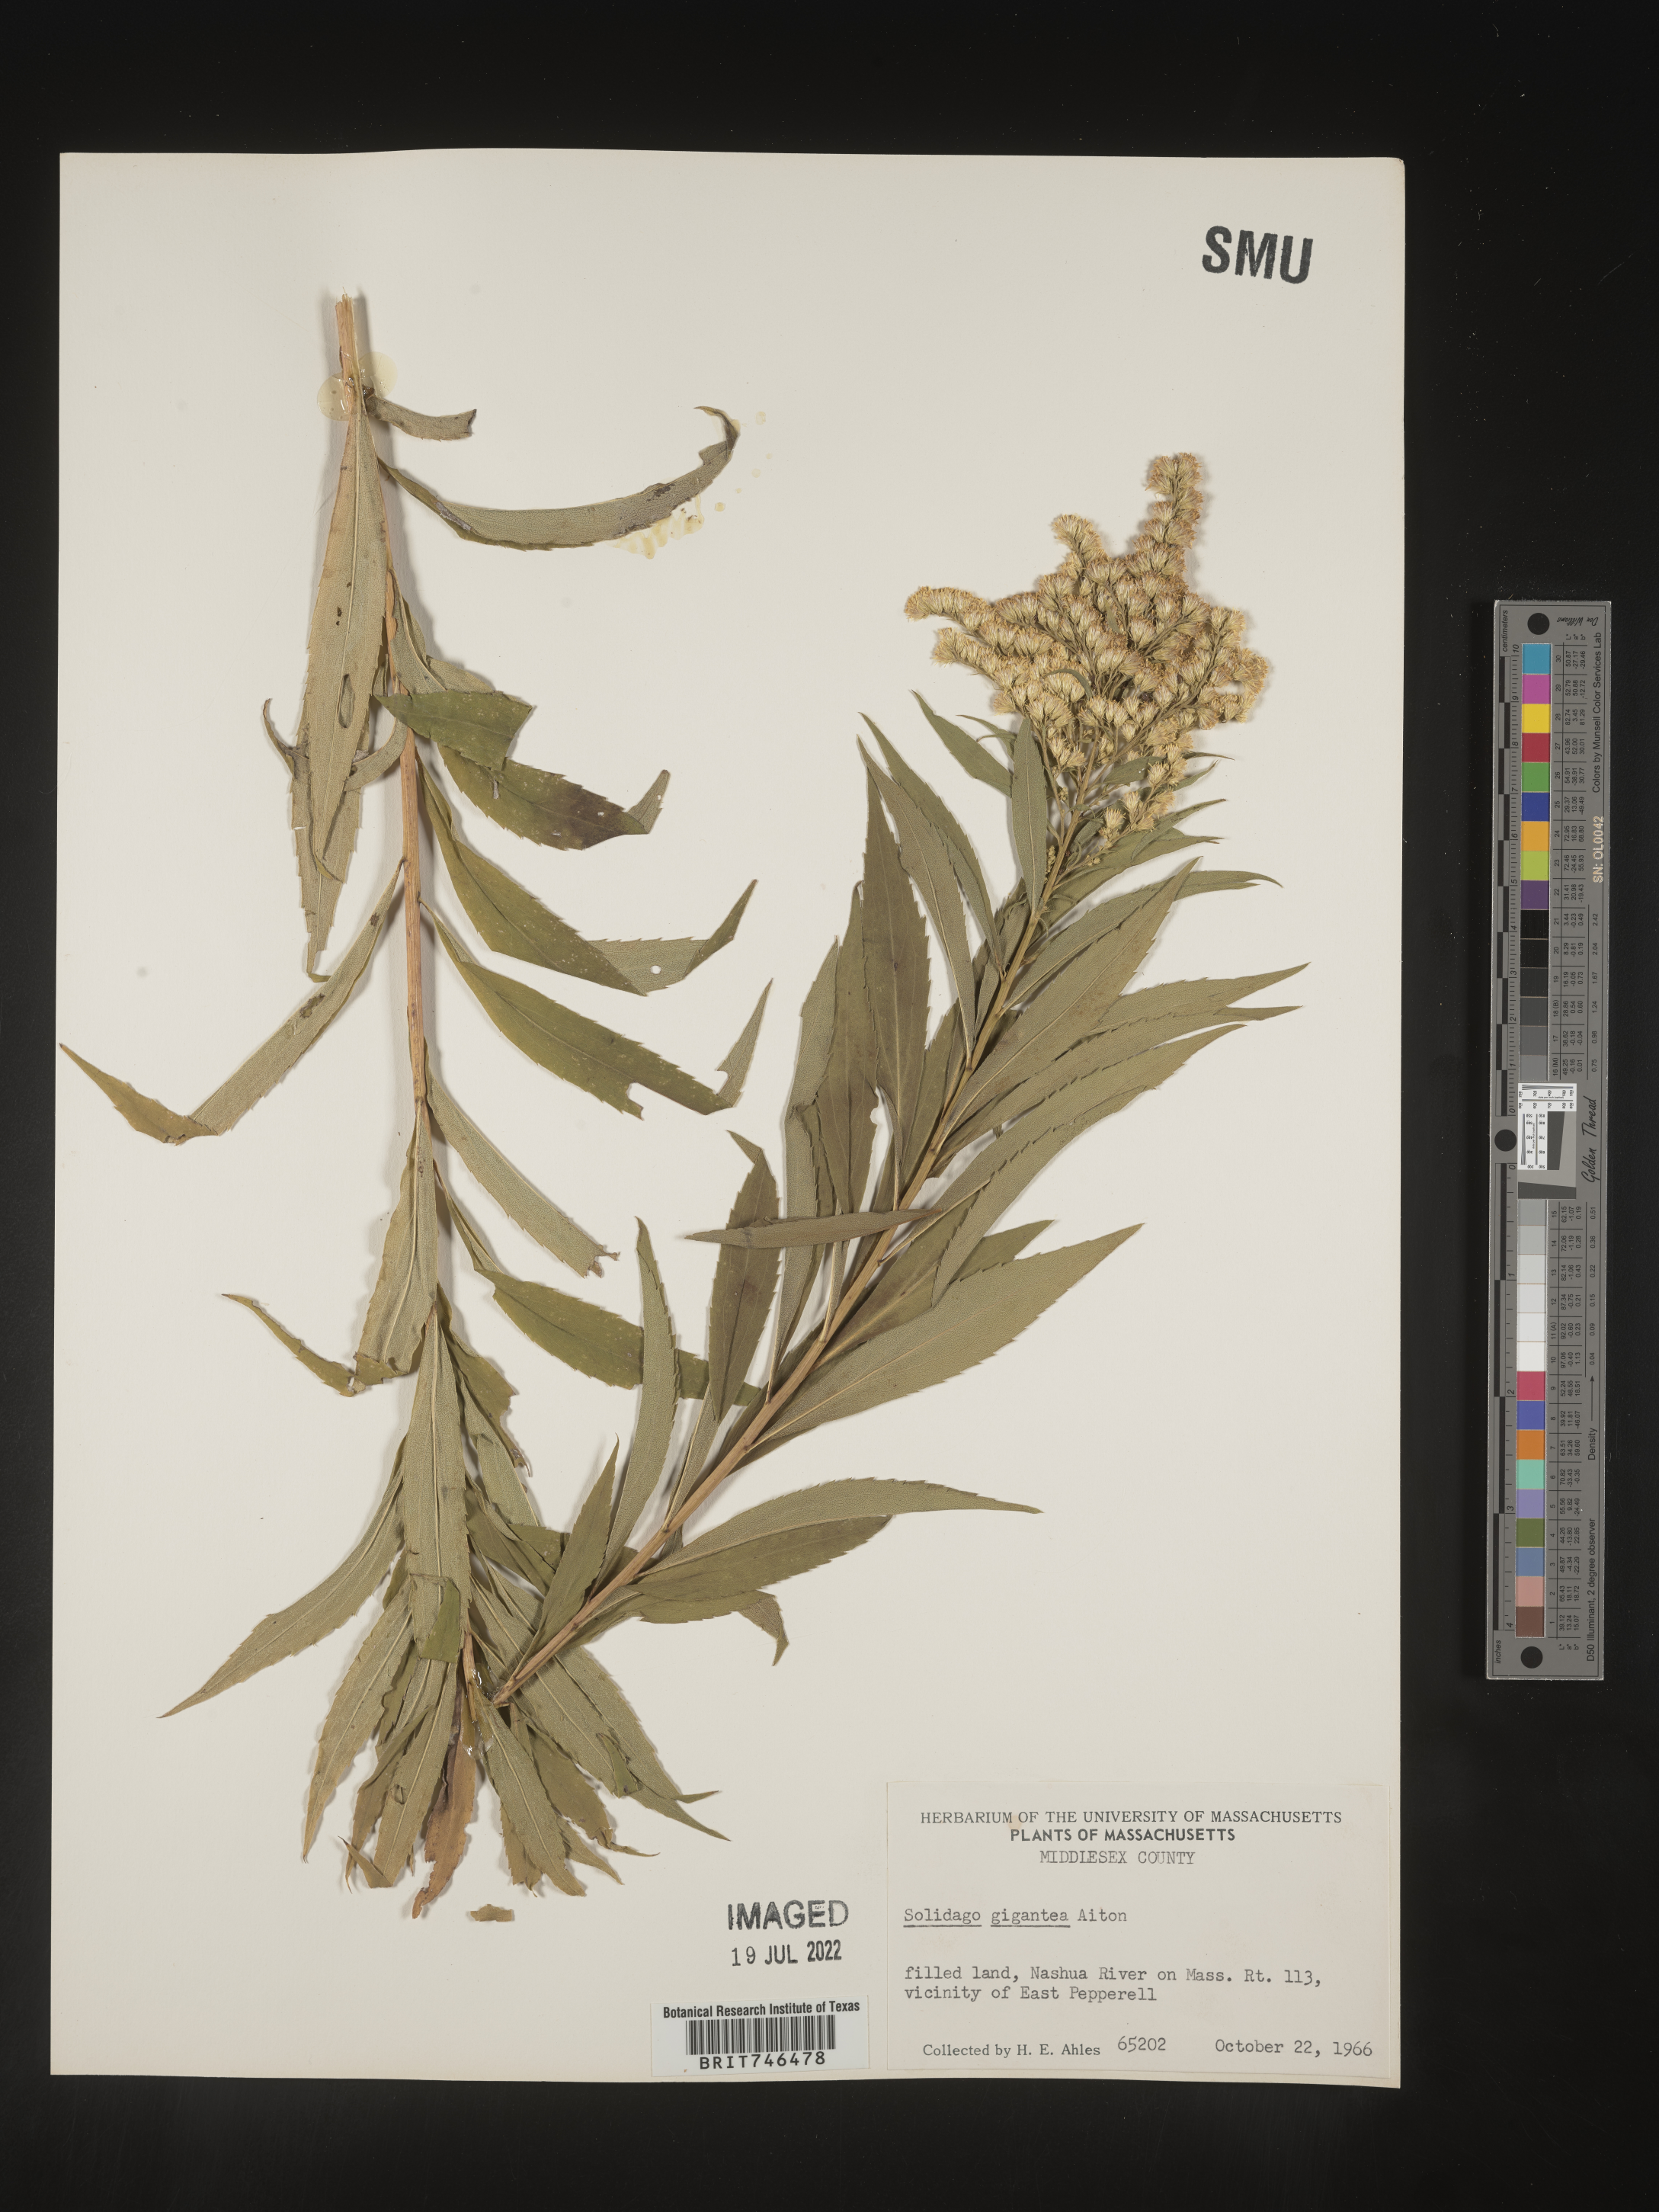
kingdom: Plantae
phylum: Tracheophyta
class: Magnoliopsida
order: Asterales
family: Asteraceae
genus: Solidago
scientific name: Solidago gigantea
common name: Giant goldenrod
